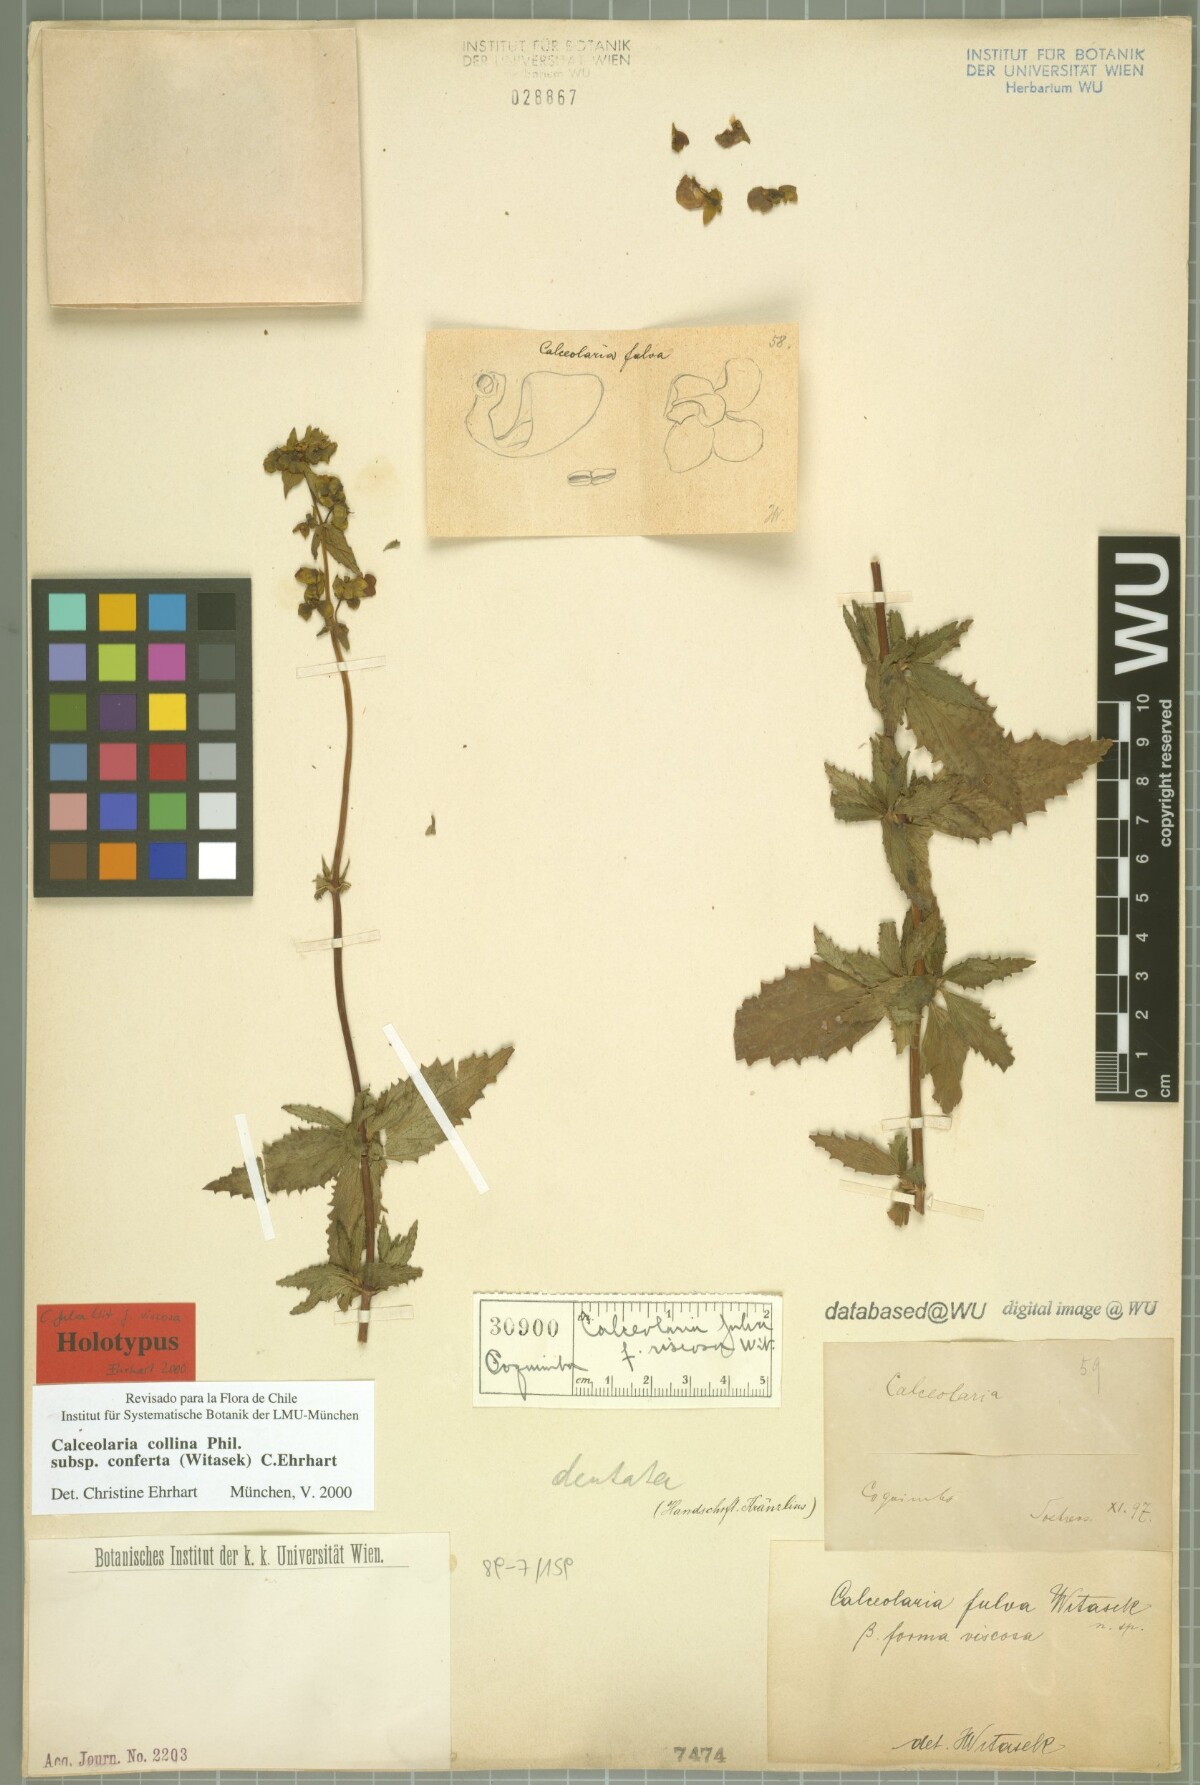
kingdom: Plantae
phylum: Tracheophyta
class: Magnoliopsida
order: Lamiales
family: Calceolariaceae
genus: Calceolaria
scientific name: Calceolaria collina
